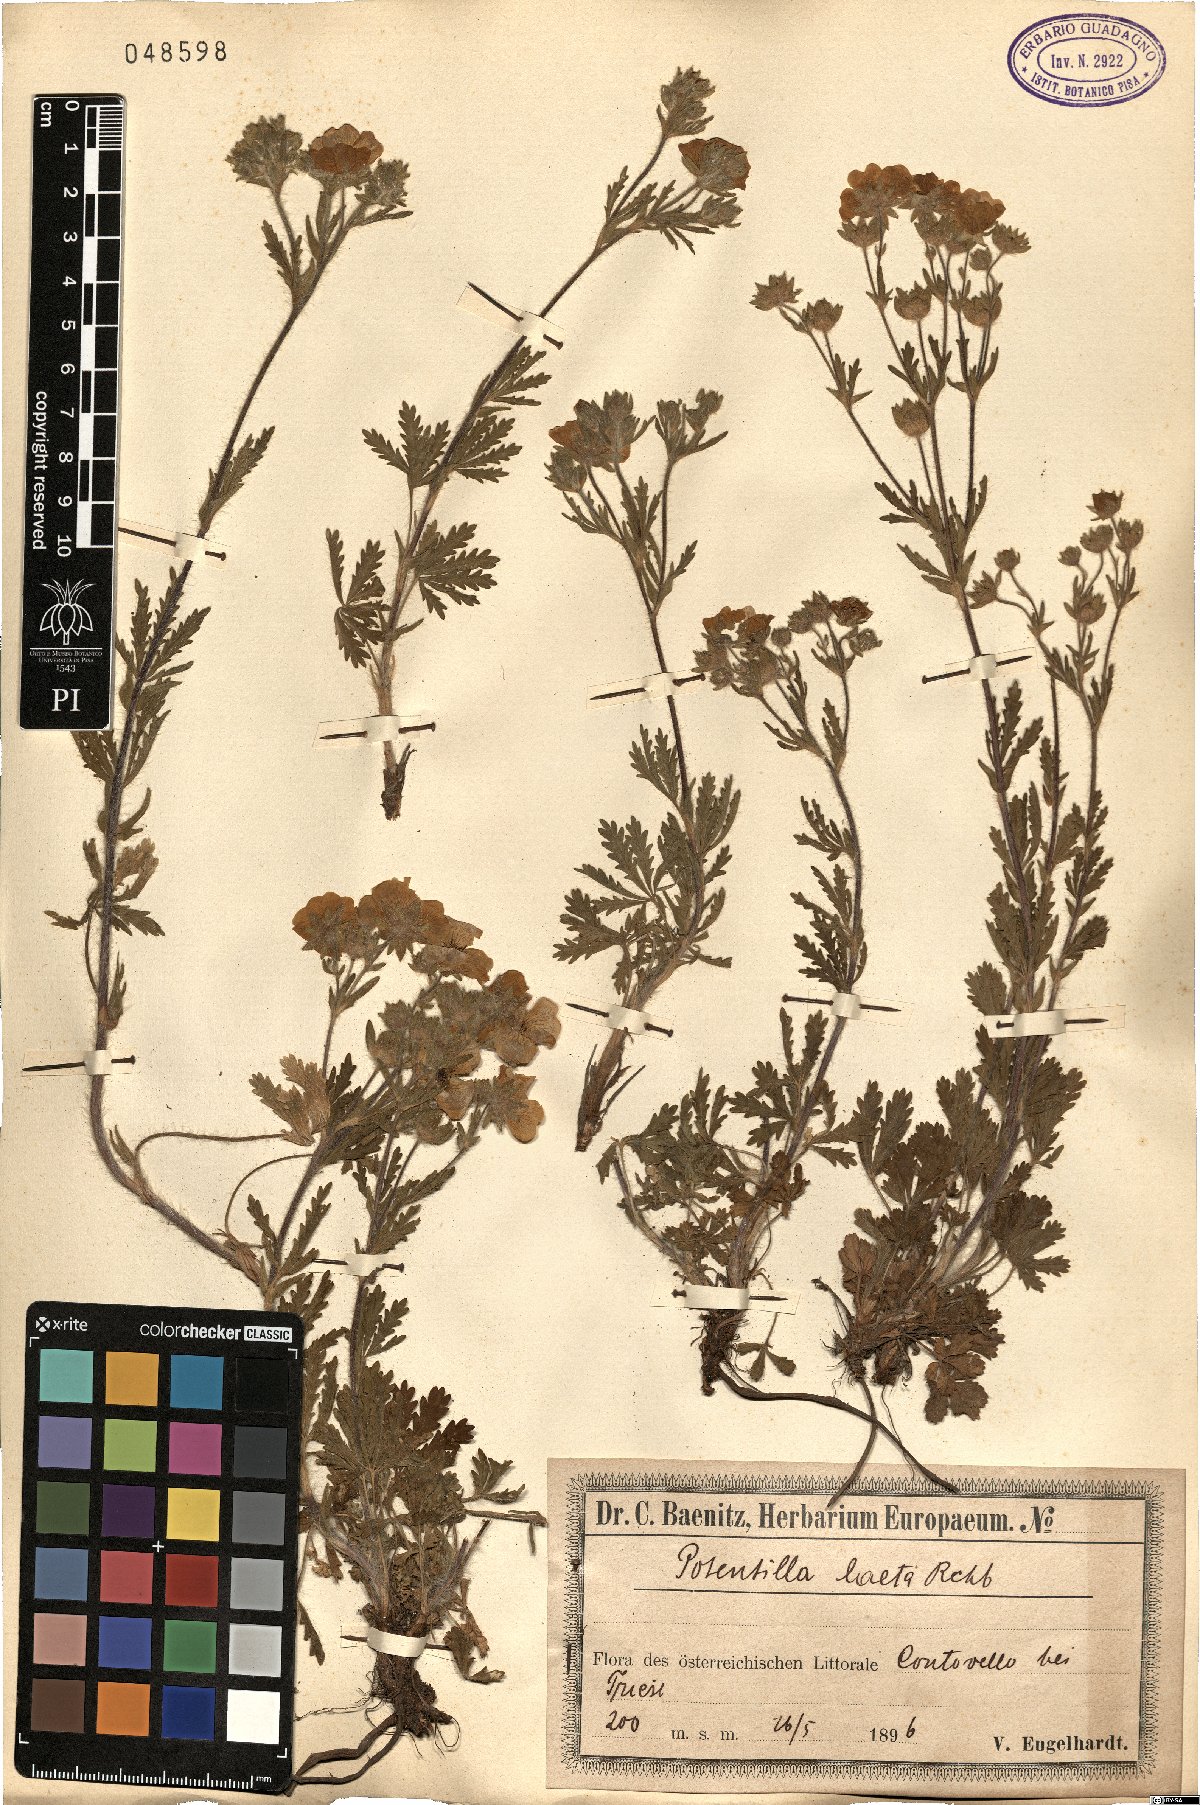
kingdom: Plantae
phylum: Tracheophyta
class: Magnoliopsida
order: Rosales
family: Rosaceae
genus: Potentilla
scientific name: Potentilla hirta
